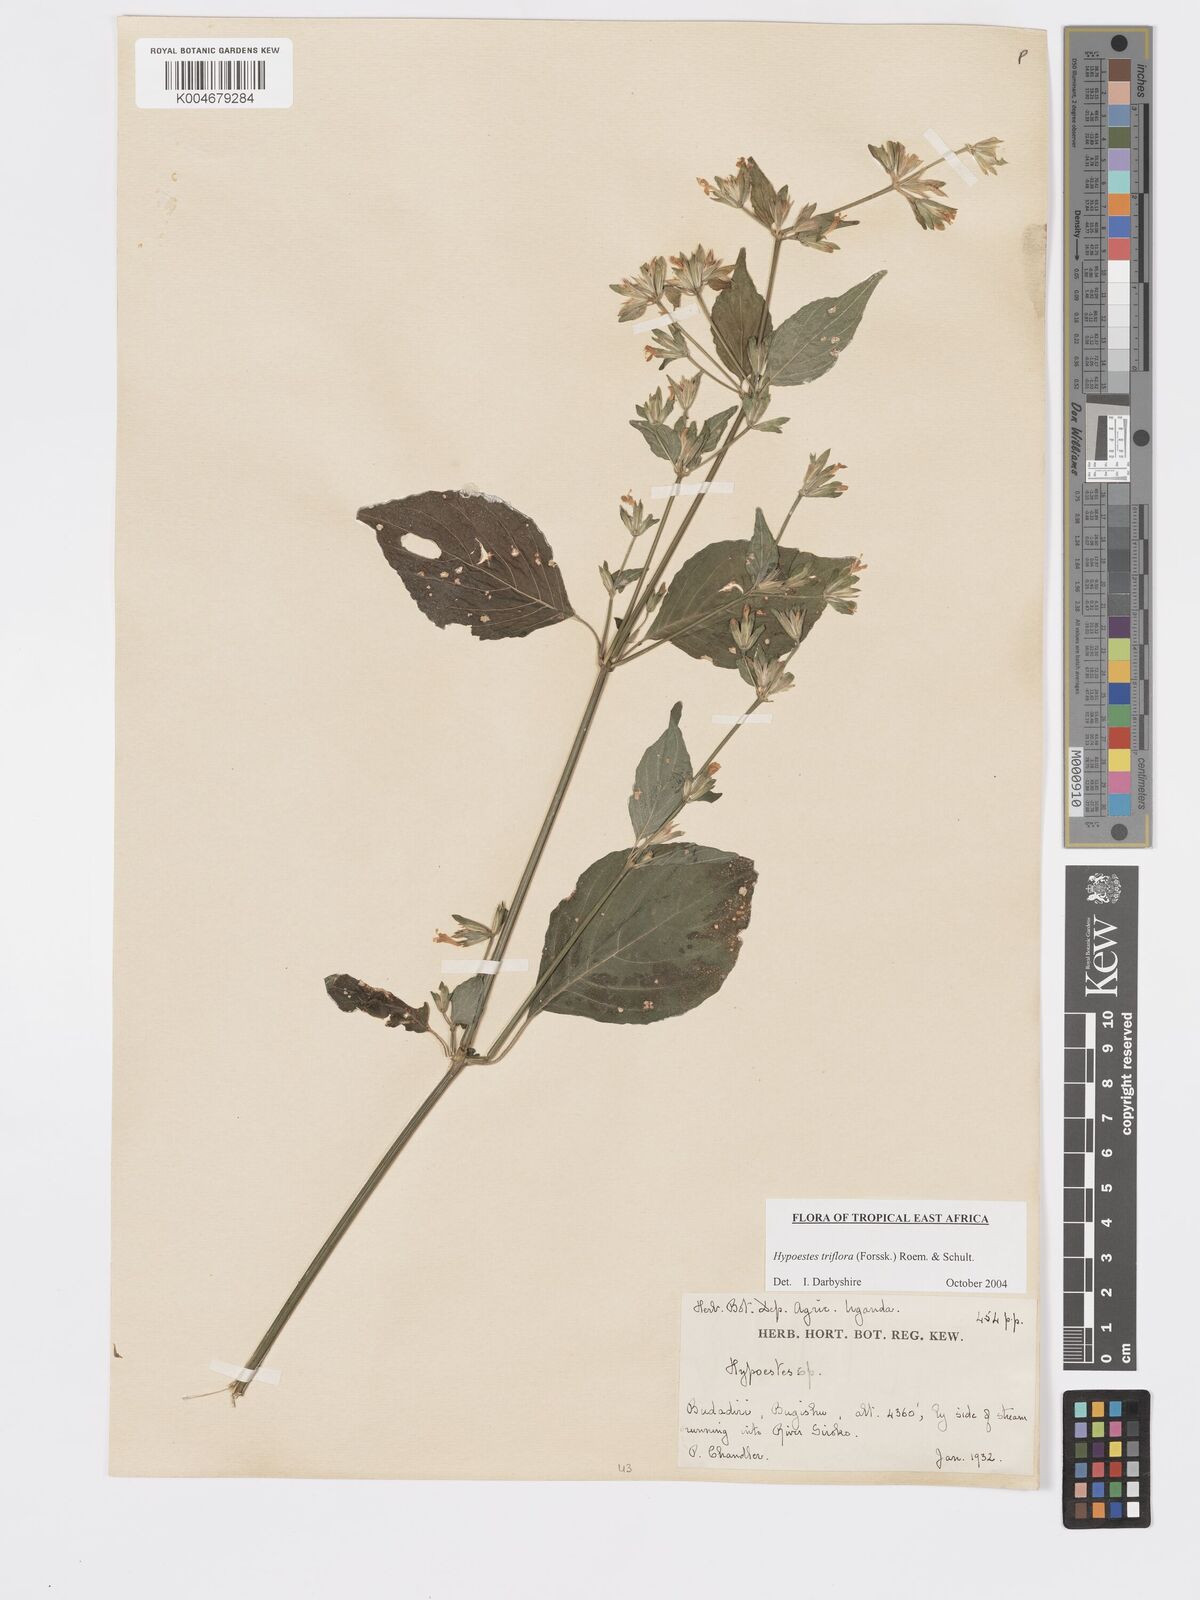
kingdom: Plantae
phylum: Tracheophyta
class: Magnoliopsida
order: Lamiales
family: Acanthaceae
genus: Hypoestes
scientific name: Hypoestes triflora
